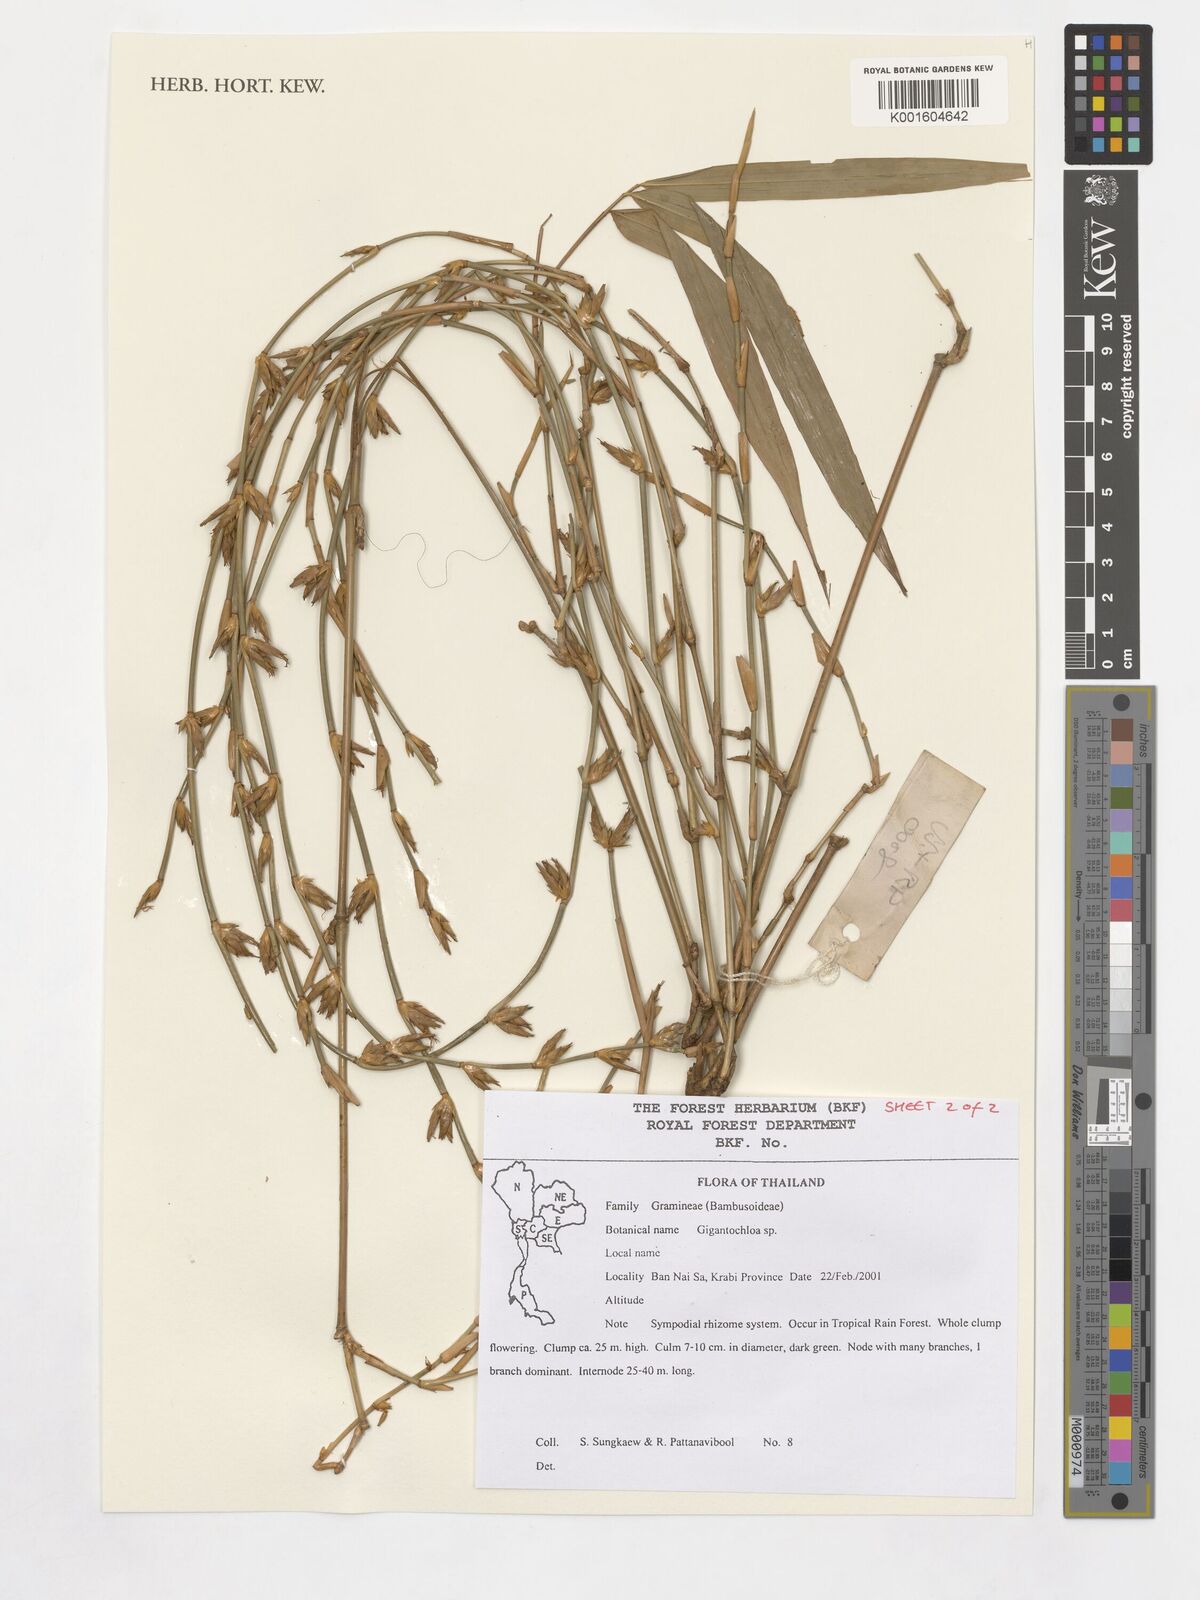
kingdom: Plantae
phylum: Tracheophyta
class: Liliopsida
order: Poales
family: Poaceae
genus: Gigantochloa
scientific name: Gigantochloa
